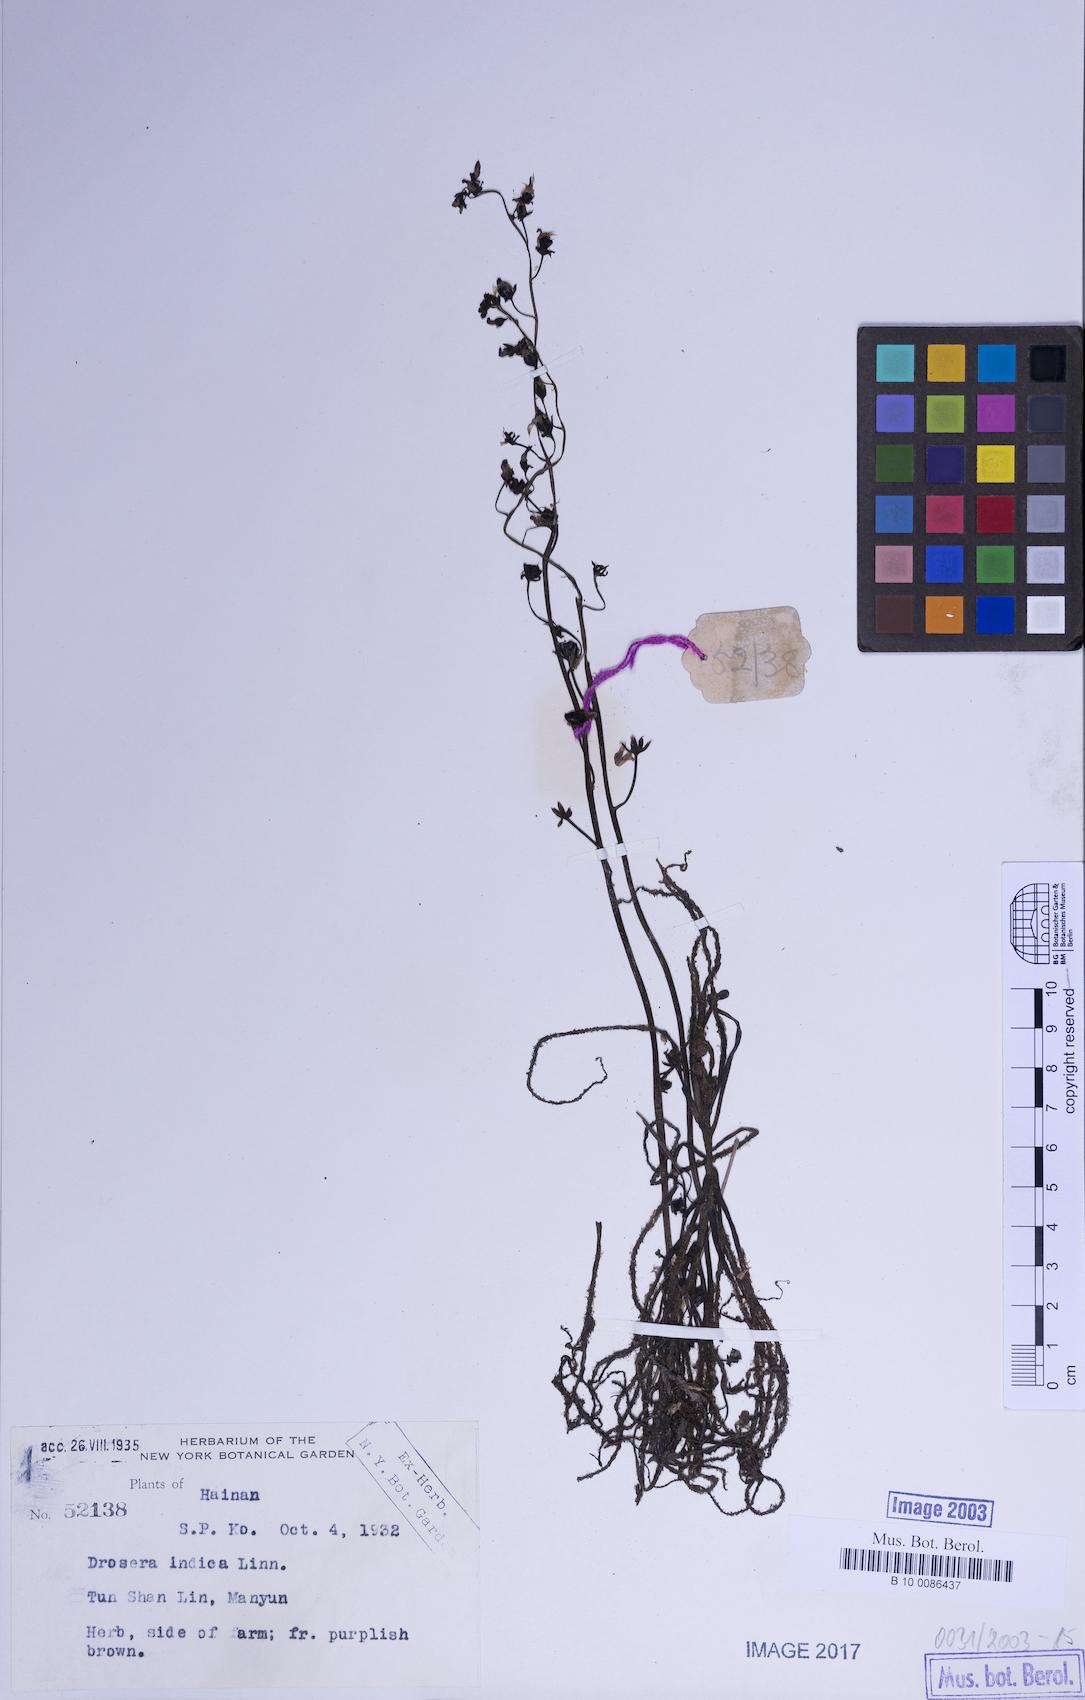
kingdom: Plantae
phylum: Tracheophyta
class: Magnoliopsida
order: Caryophyllales
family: Droseraceae
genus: Drosera
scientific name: Drosera indica
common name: Indian sundew
